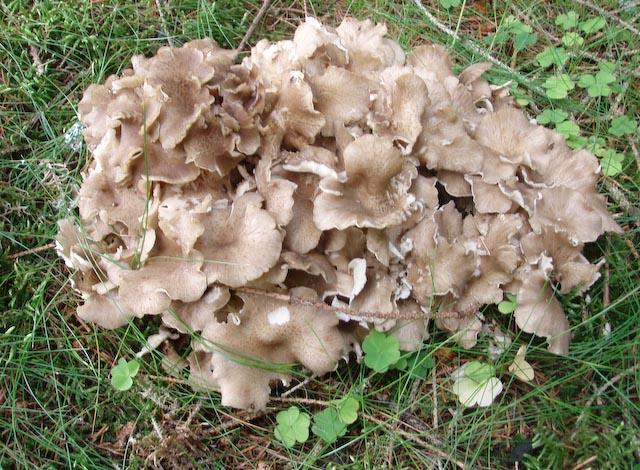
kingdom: Fungi
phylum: Basidiomycota
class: Agaricomycetes
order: Polyporales
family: Polyporaceae
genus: Polyporus
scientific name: Polyporus umbellatus
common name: skærmformet stilkporesvamp
